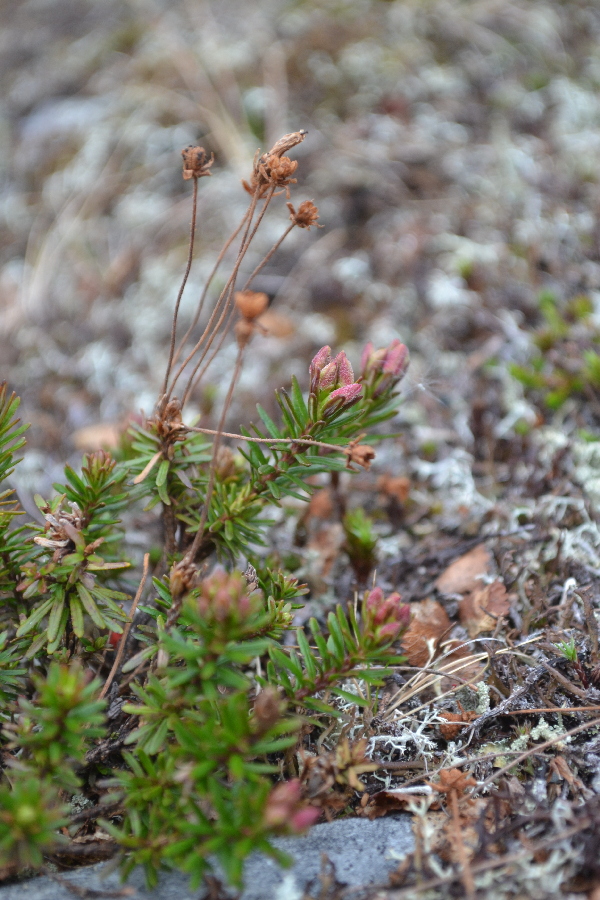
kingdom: Plantae
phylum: Tracheophyta
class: Magnoliopsida
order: Ericales
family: Ericaceae
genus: Phyllodoce
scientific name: Phyllodoce caerulea
